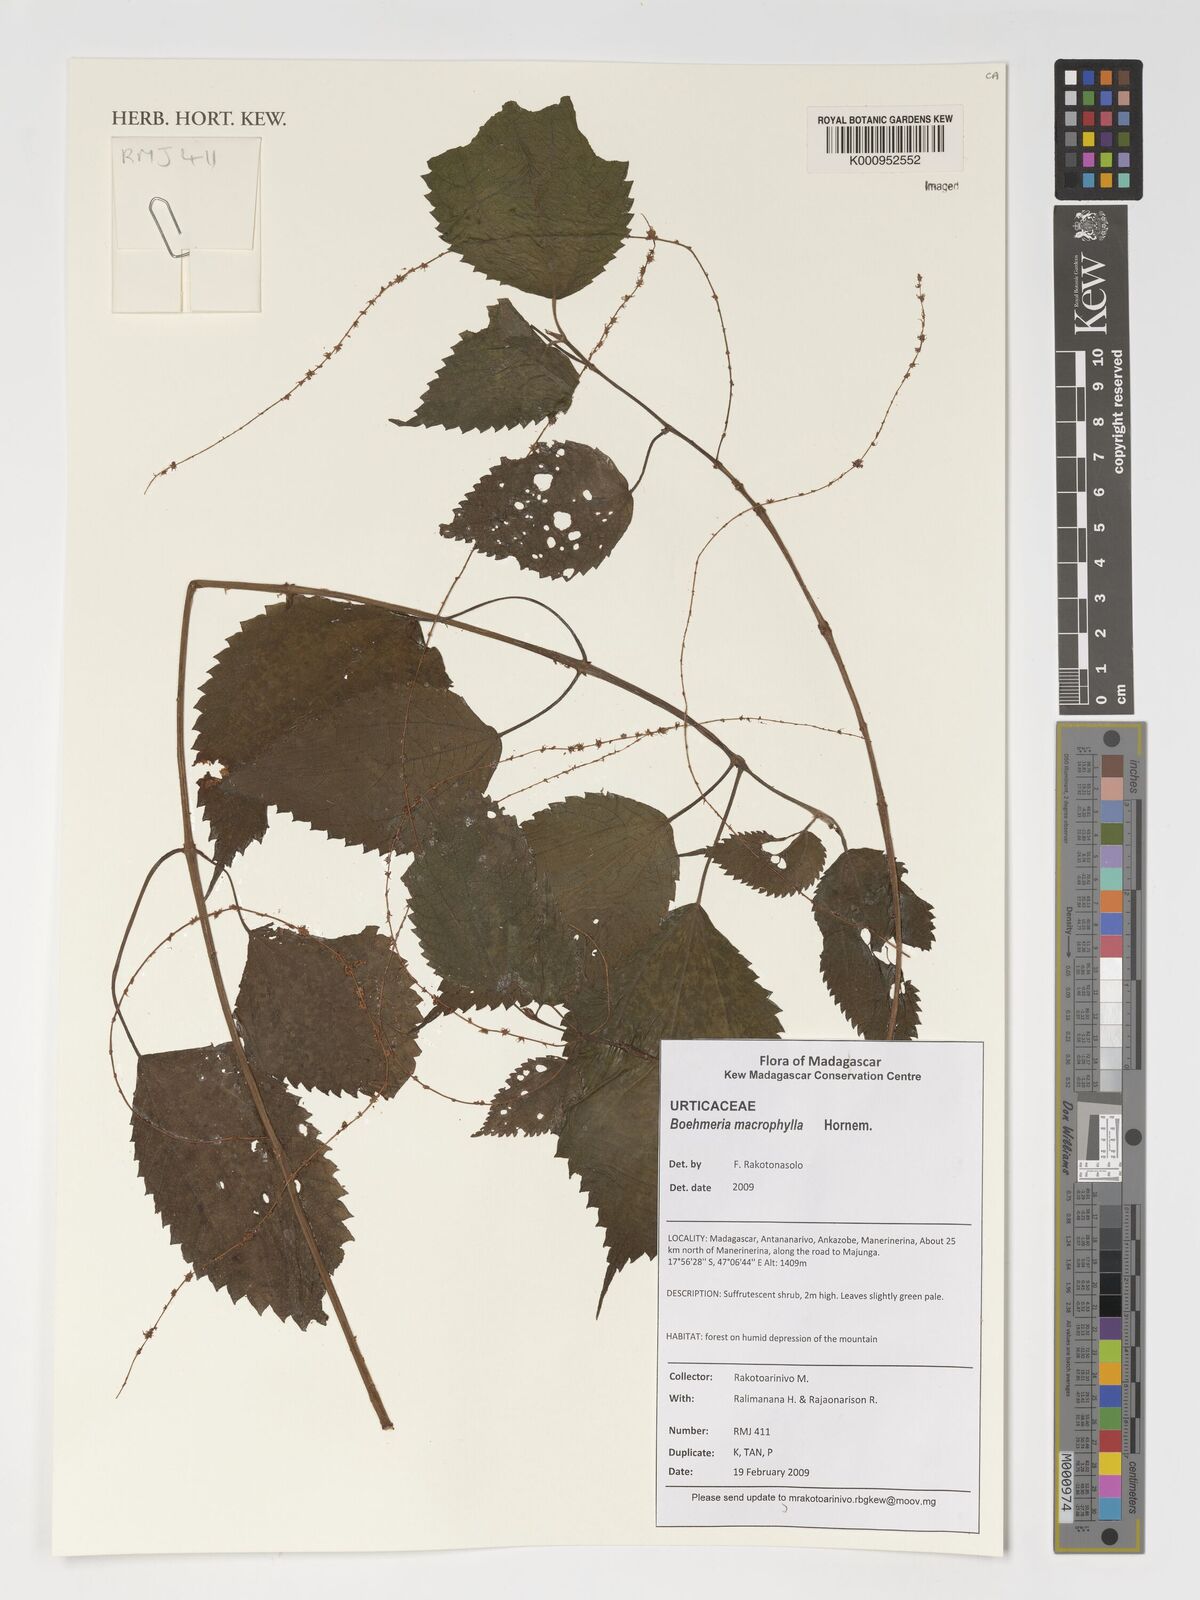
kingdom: Plantae
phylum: Tracheophyta
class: Magnoliopsida
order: Rosales
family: Urticaceae
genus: Boehmeria
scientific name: Boehmeria virgata
